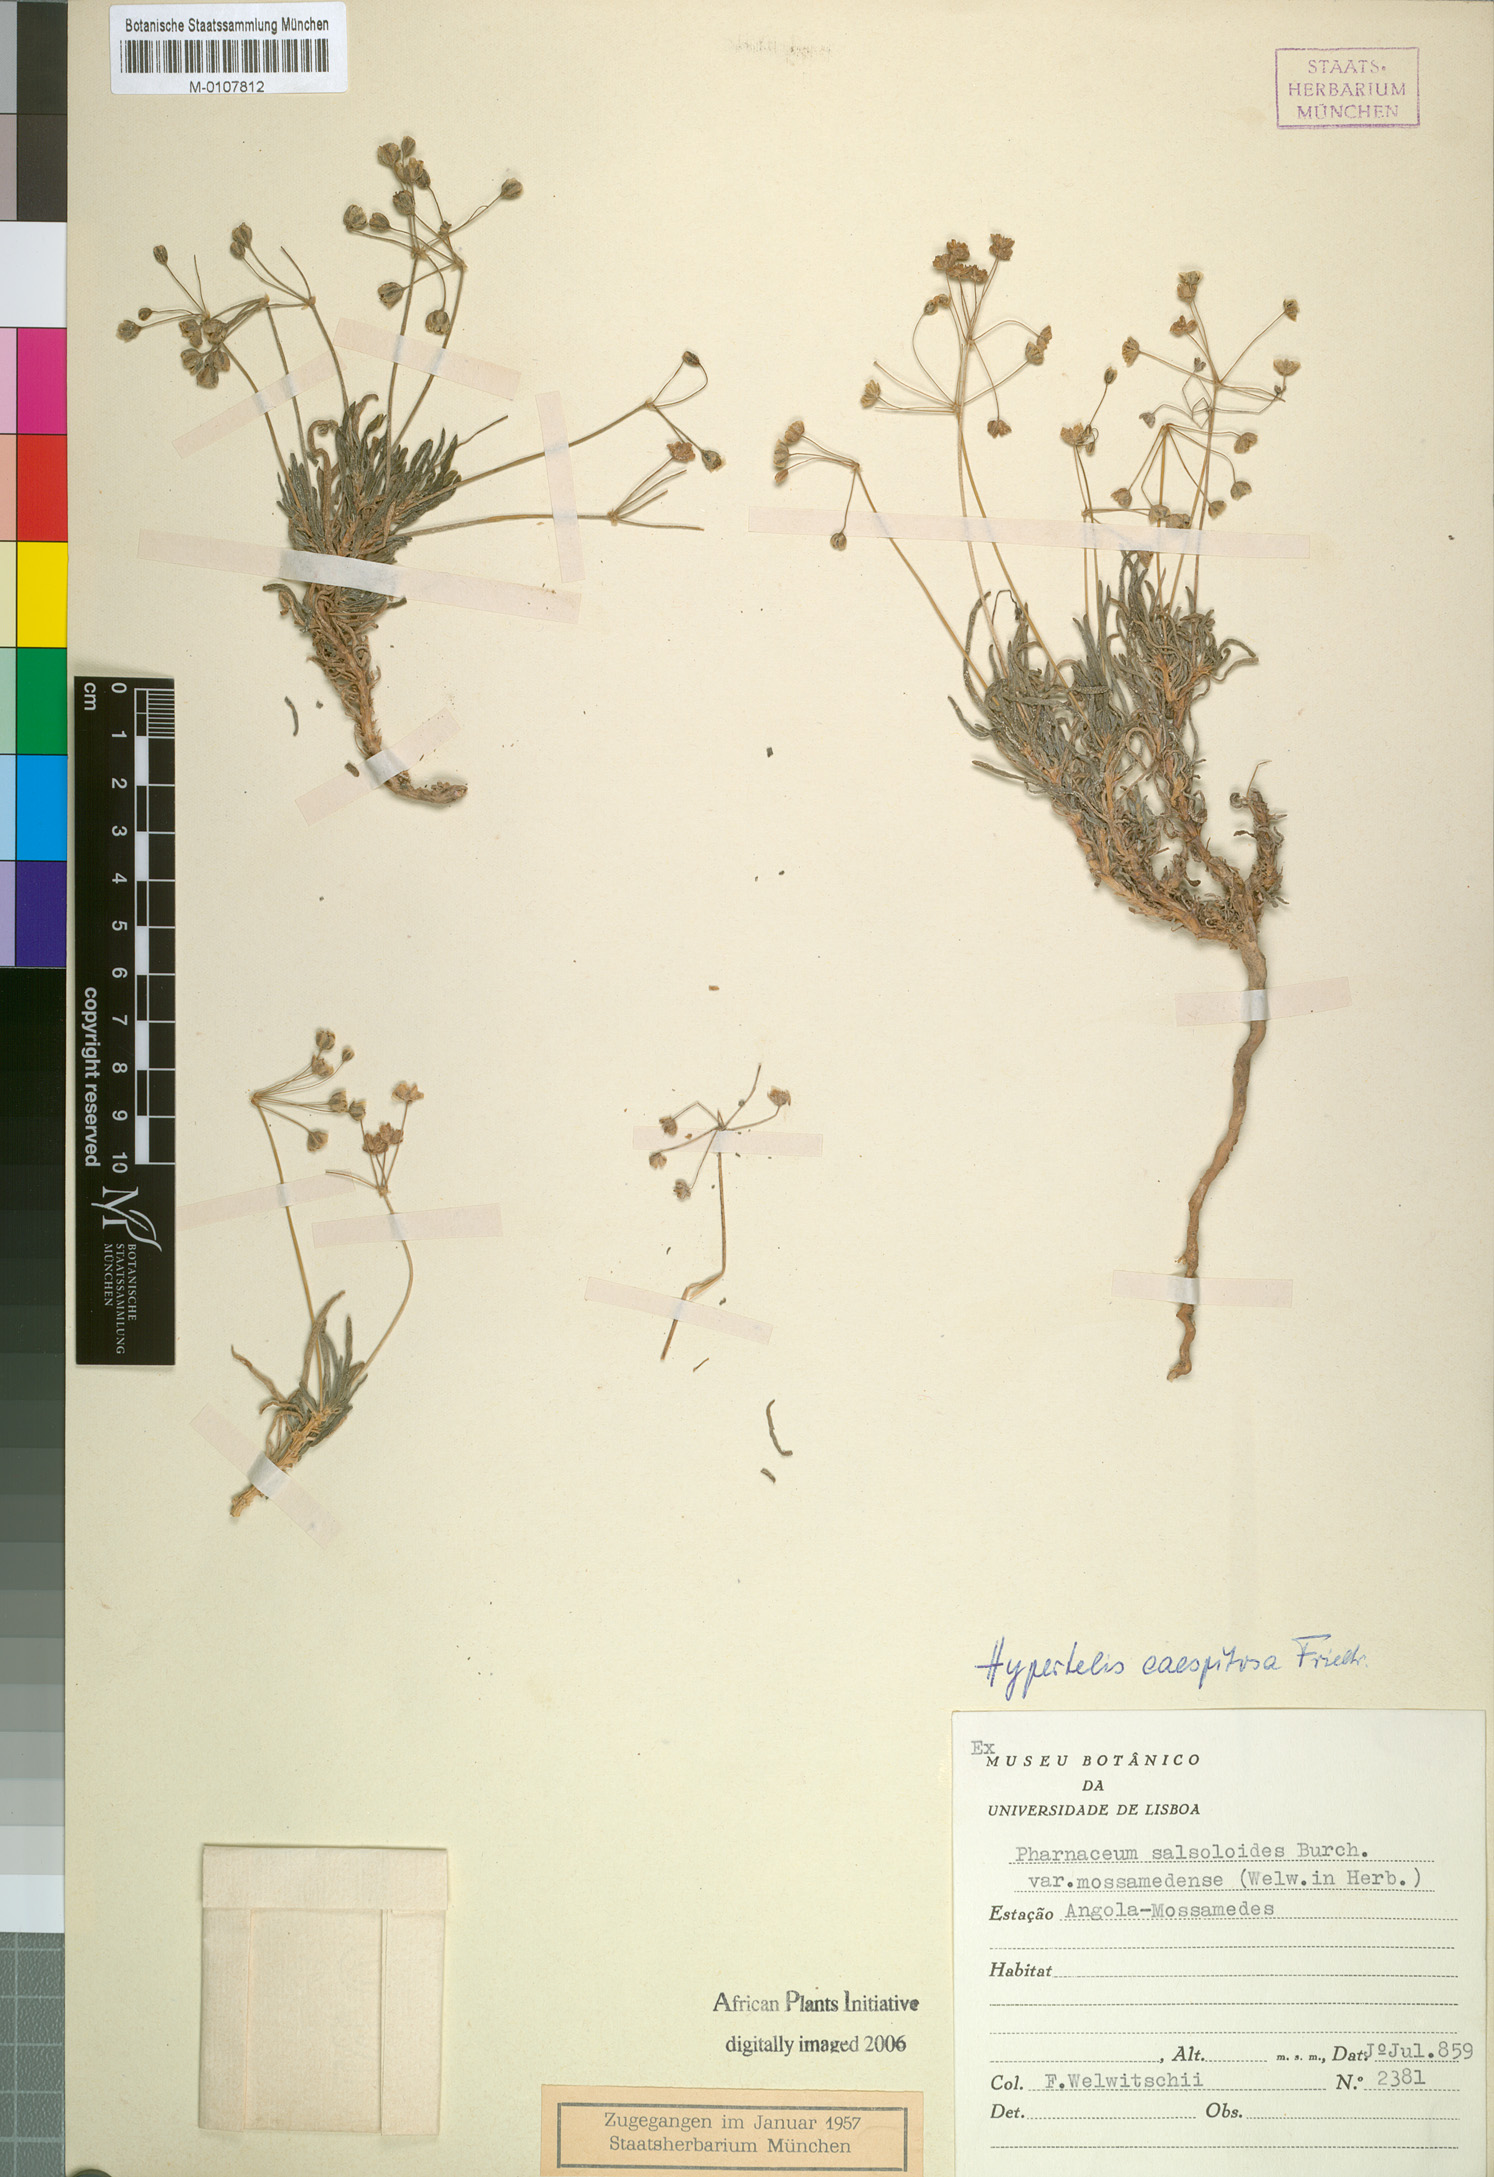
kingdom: Plantae
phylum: Tracheophyta
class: Magnoliopsida
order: Caryophyllales
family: Kewaceae
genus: Kewa
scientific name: Kewa caespitosa
